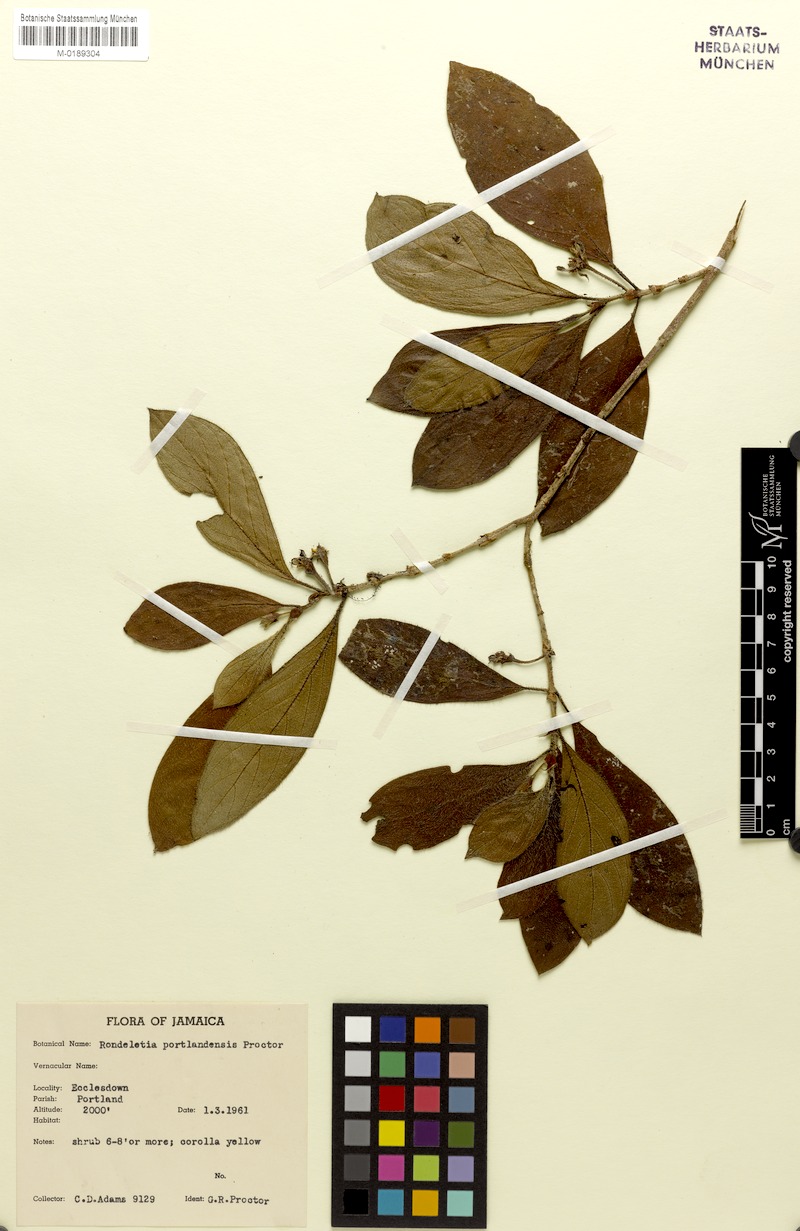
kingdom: Plantae
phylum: Tracheophyta
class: Magnoliopsida
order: Gentianales
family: Rubiaceae
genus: Rondeletia
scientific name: Rondeletia portlandensis
